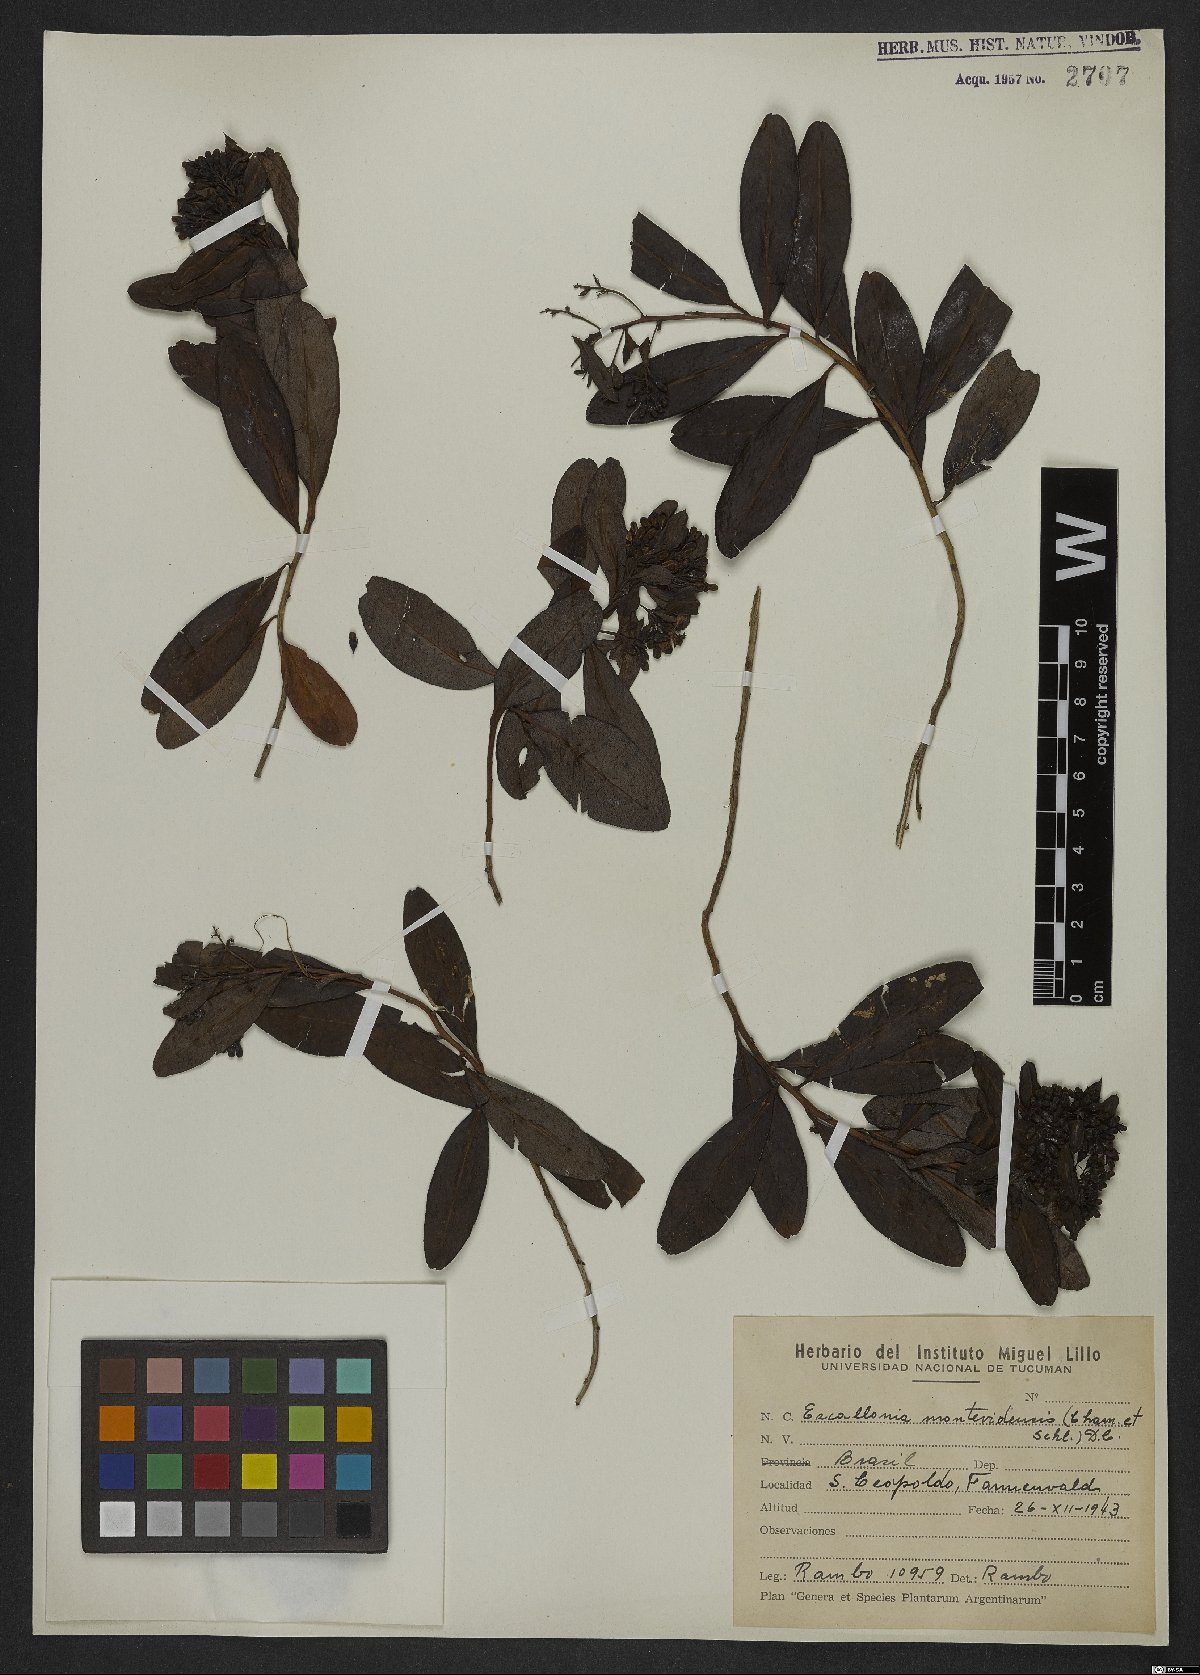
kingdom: Plantae
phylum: Tracheophyta
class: Magnoliopsida
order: Escalloniales
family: Escalloniaceae
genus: Escallonia
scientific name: Escallonia bifida
